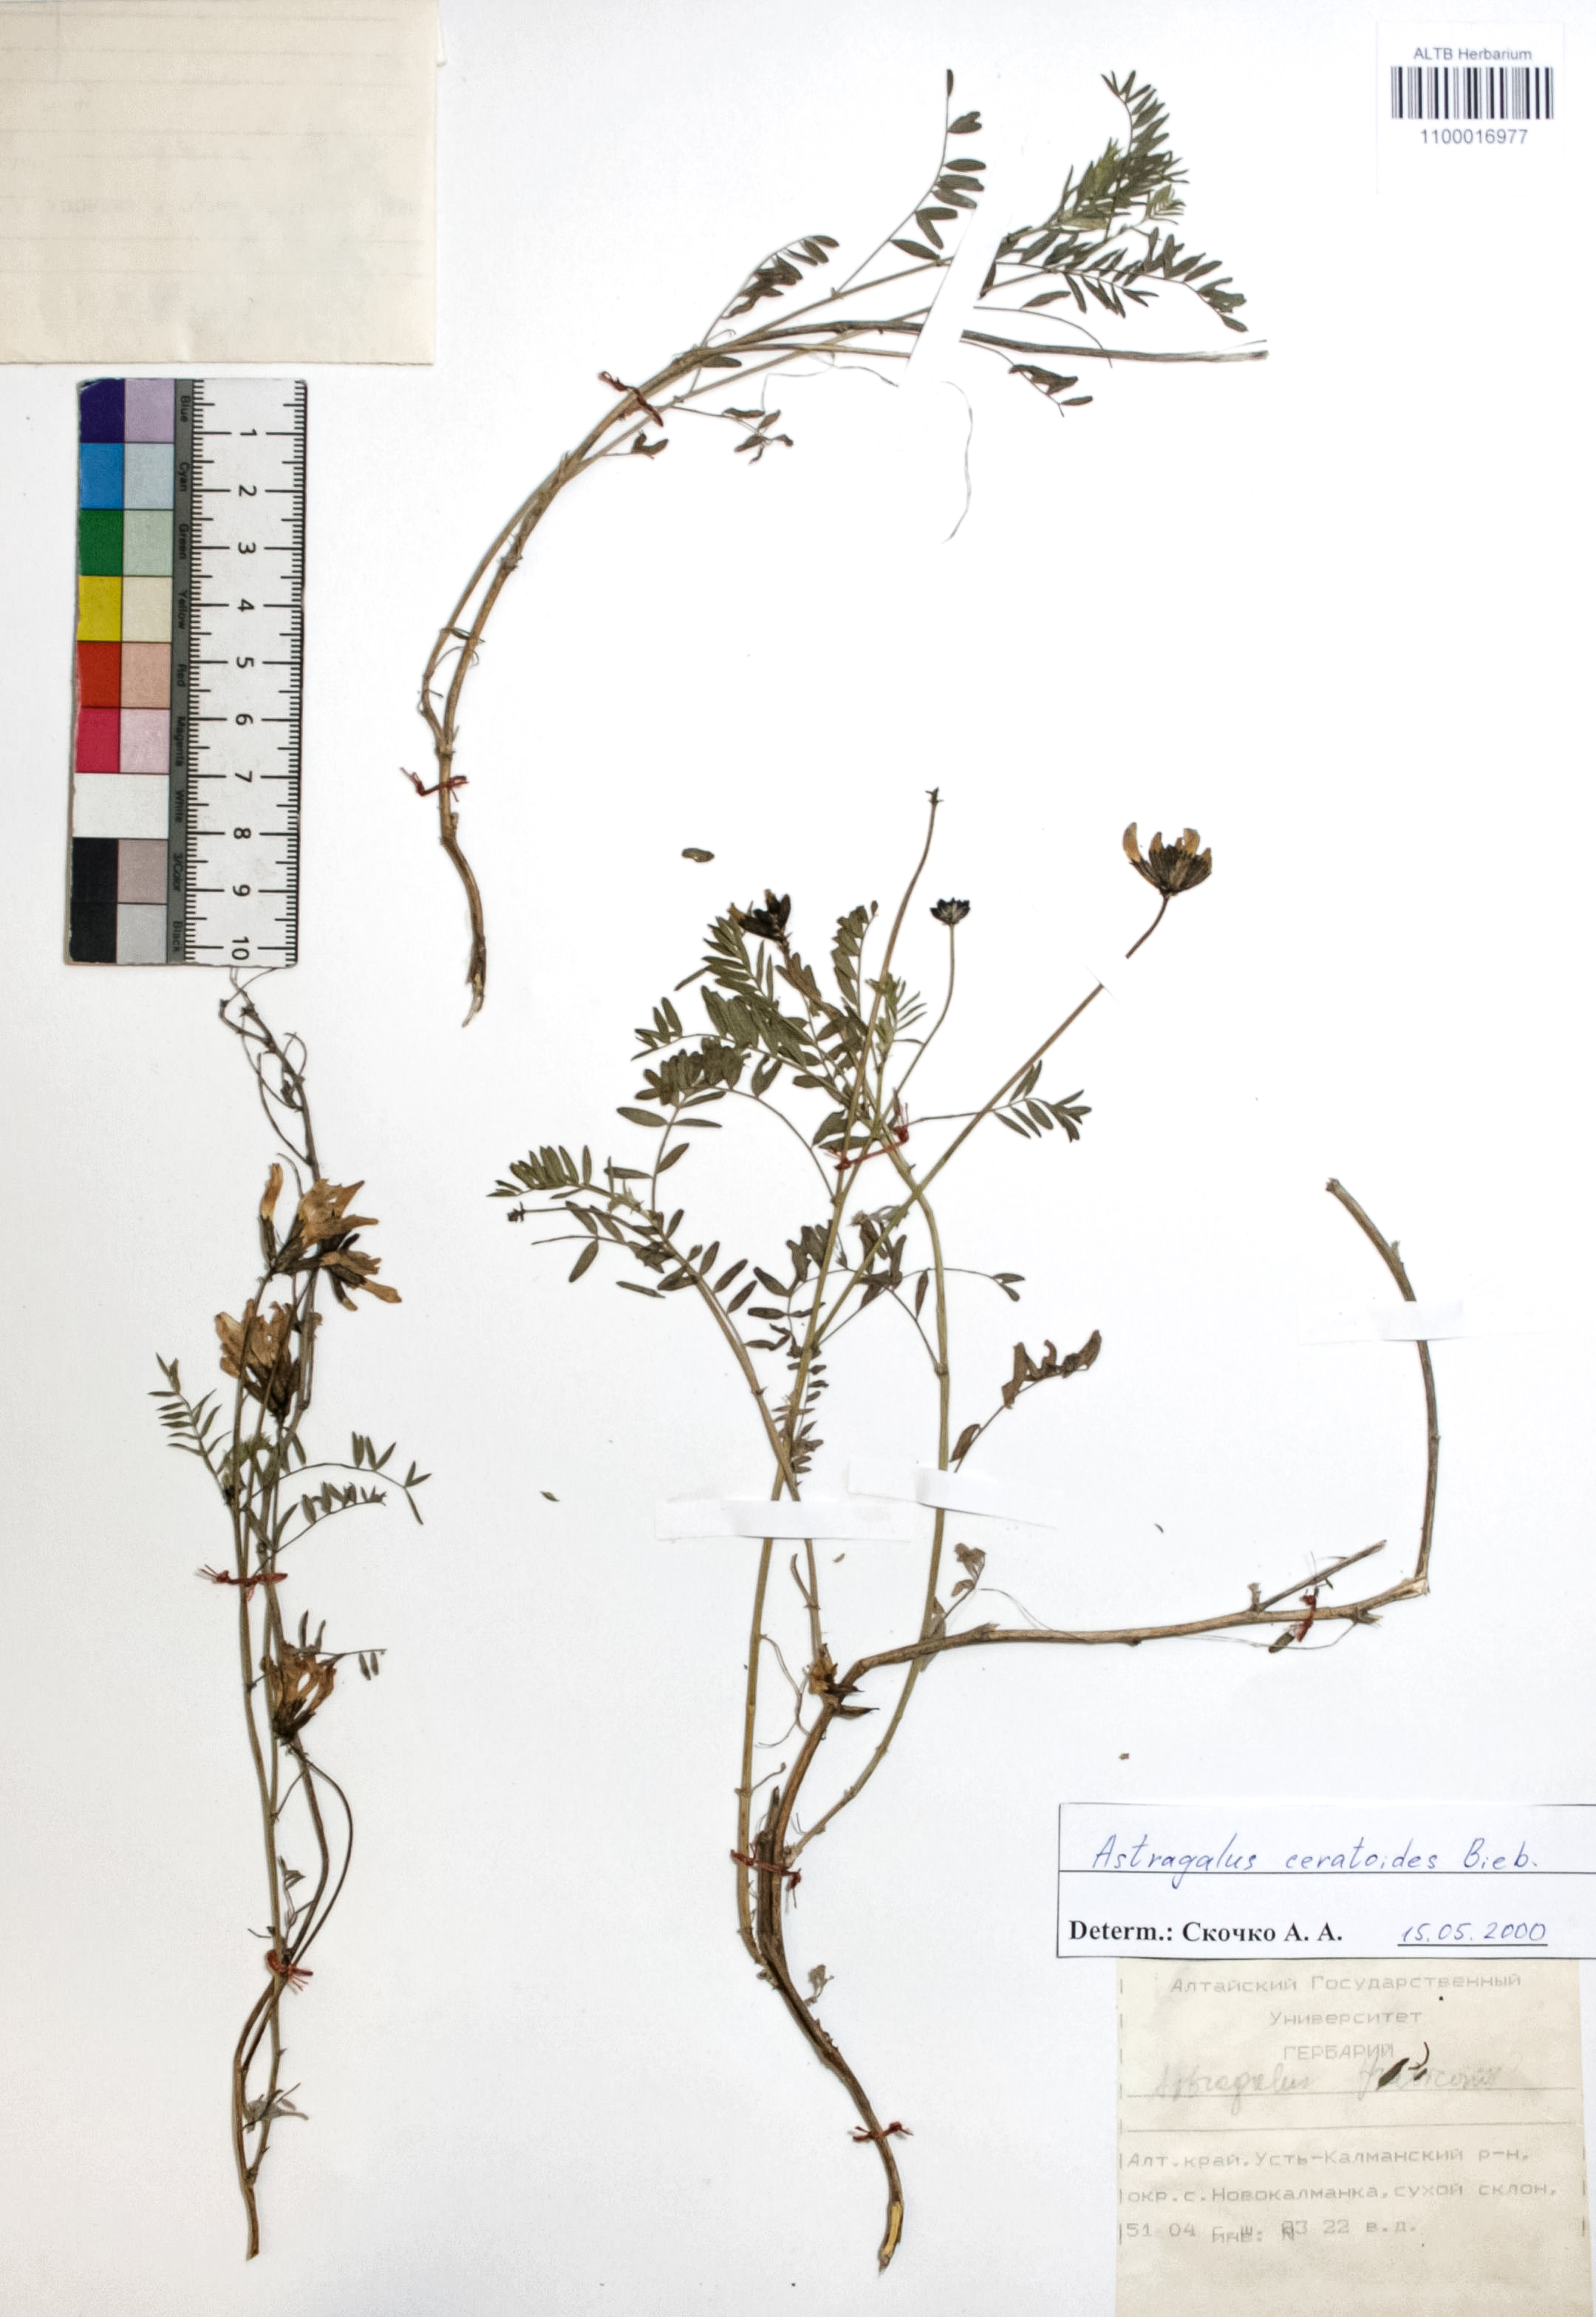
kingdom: Plantae
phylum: Tracheophyta
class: Magnoliopsida
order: Fabales
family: Fabaceae
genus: Astragalus
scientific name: Astragalus ceratoides
